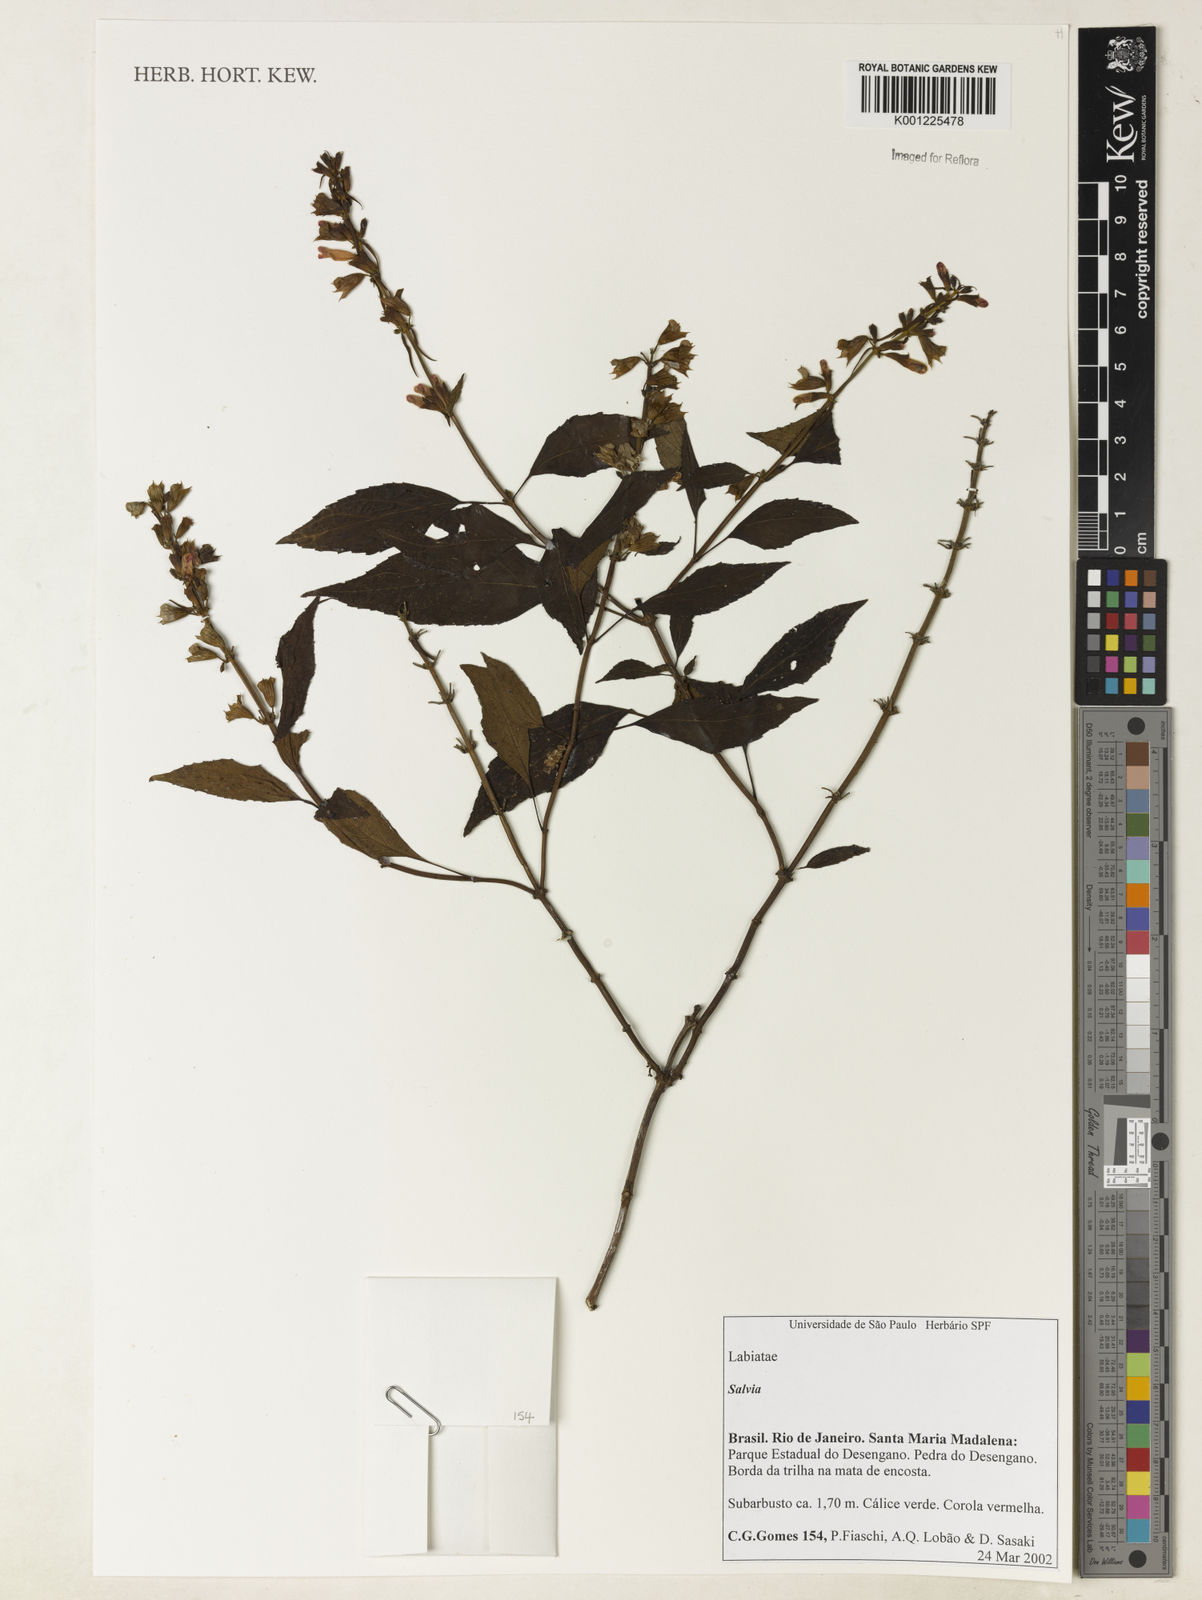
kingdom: Plantae
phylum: Tracheophyta
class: Magnoliopsida
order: Lamiales
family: Lamiaceae
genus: Salvia
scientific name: Salvia
